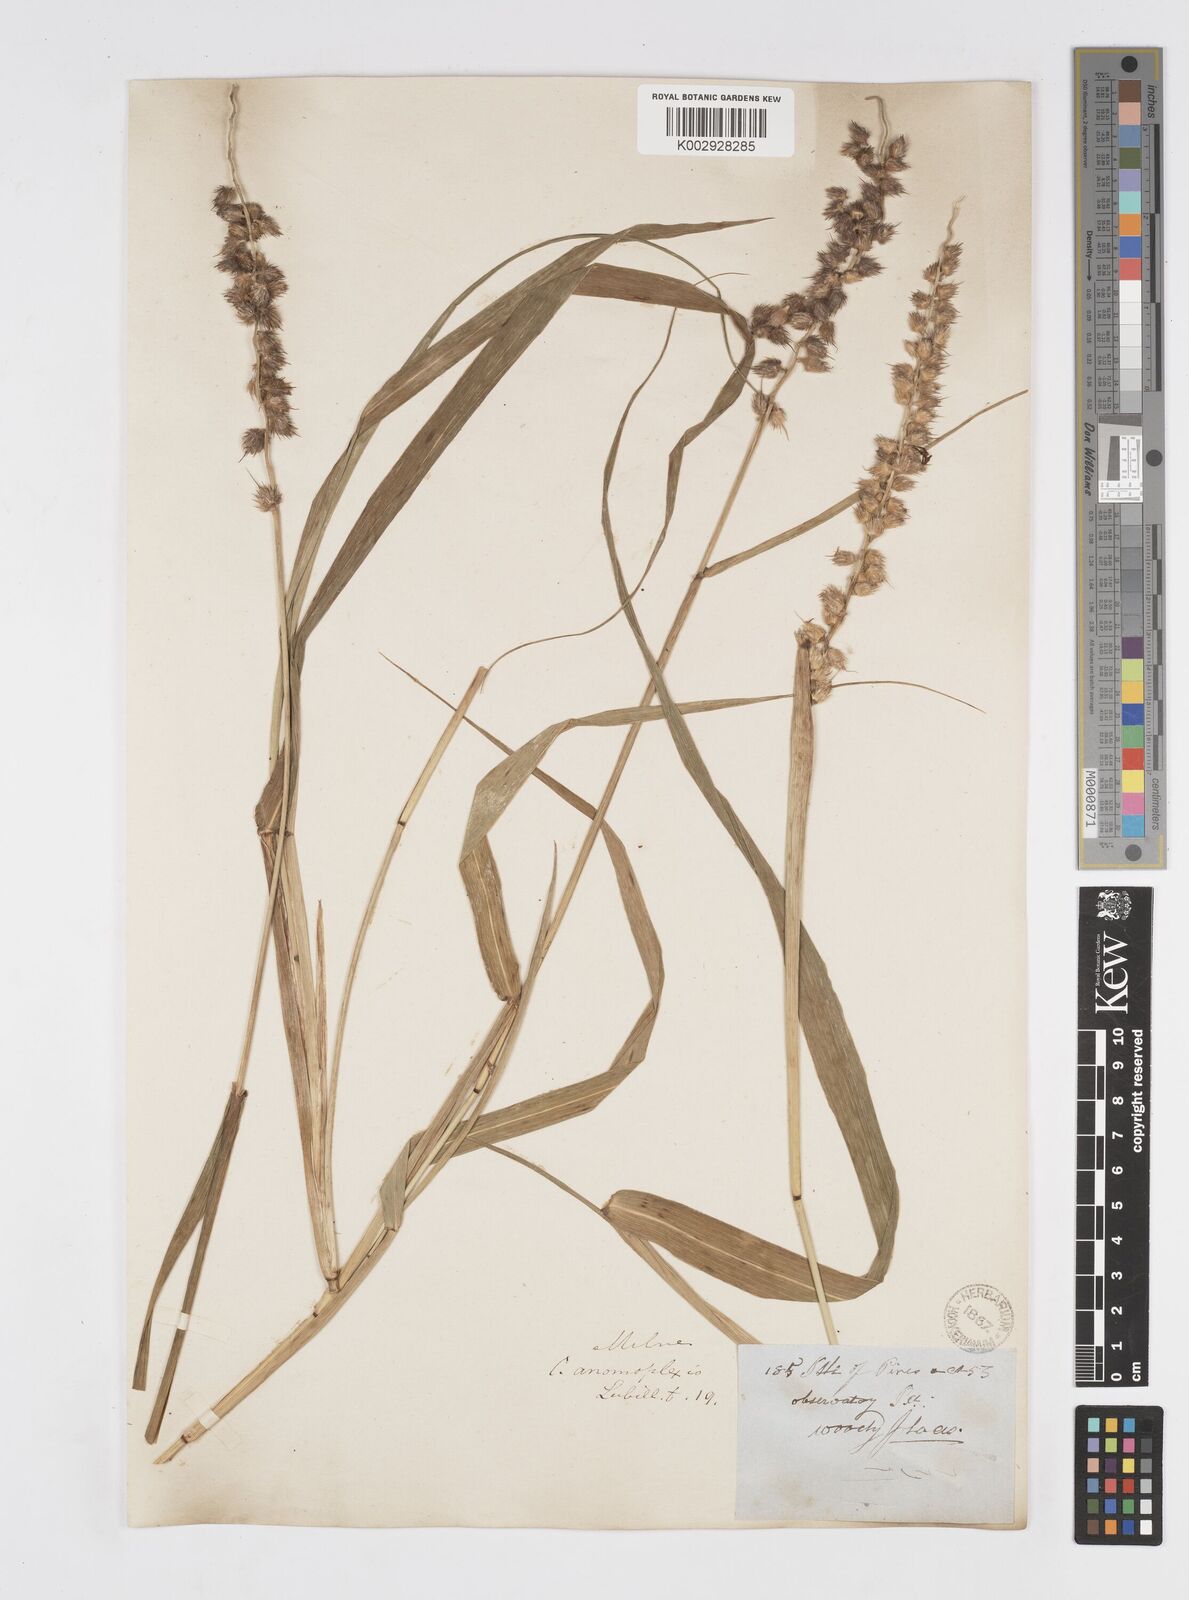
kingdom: Plantae
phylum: Tracheophyta
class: Liliopsida
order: Poales
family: Poaceae
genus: Cenchrus
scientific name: Cenchrus caliculatus
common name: Large bur grass
